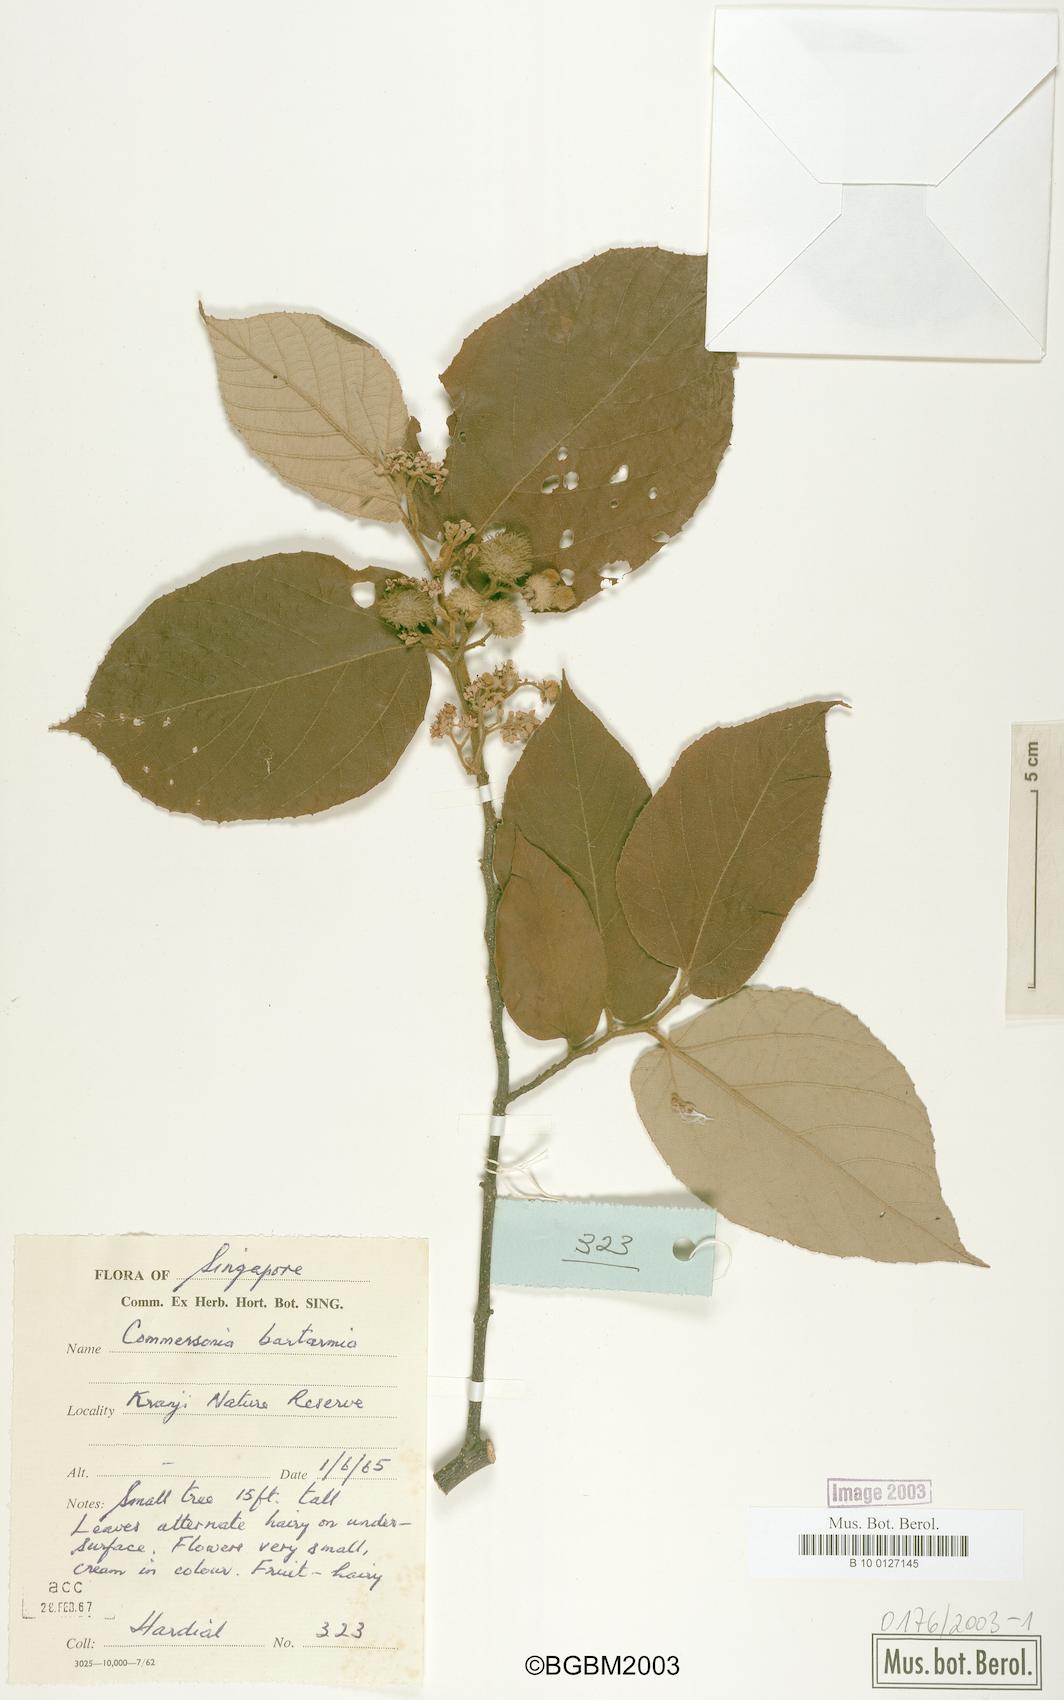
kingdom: Plantae
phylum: Tracheophyta
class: Magnoliopsida
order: Malvales
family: Malvaceae
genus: Commersonia
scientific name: Commersonia bartramia
